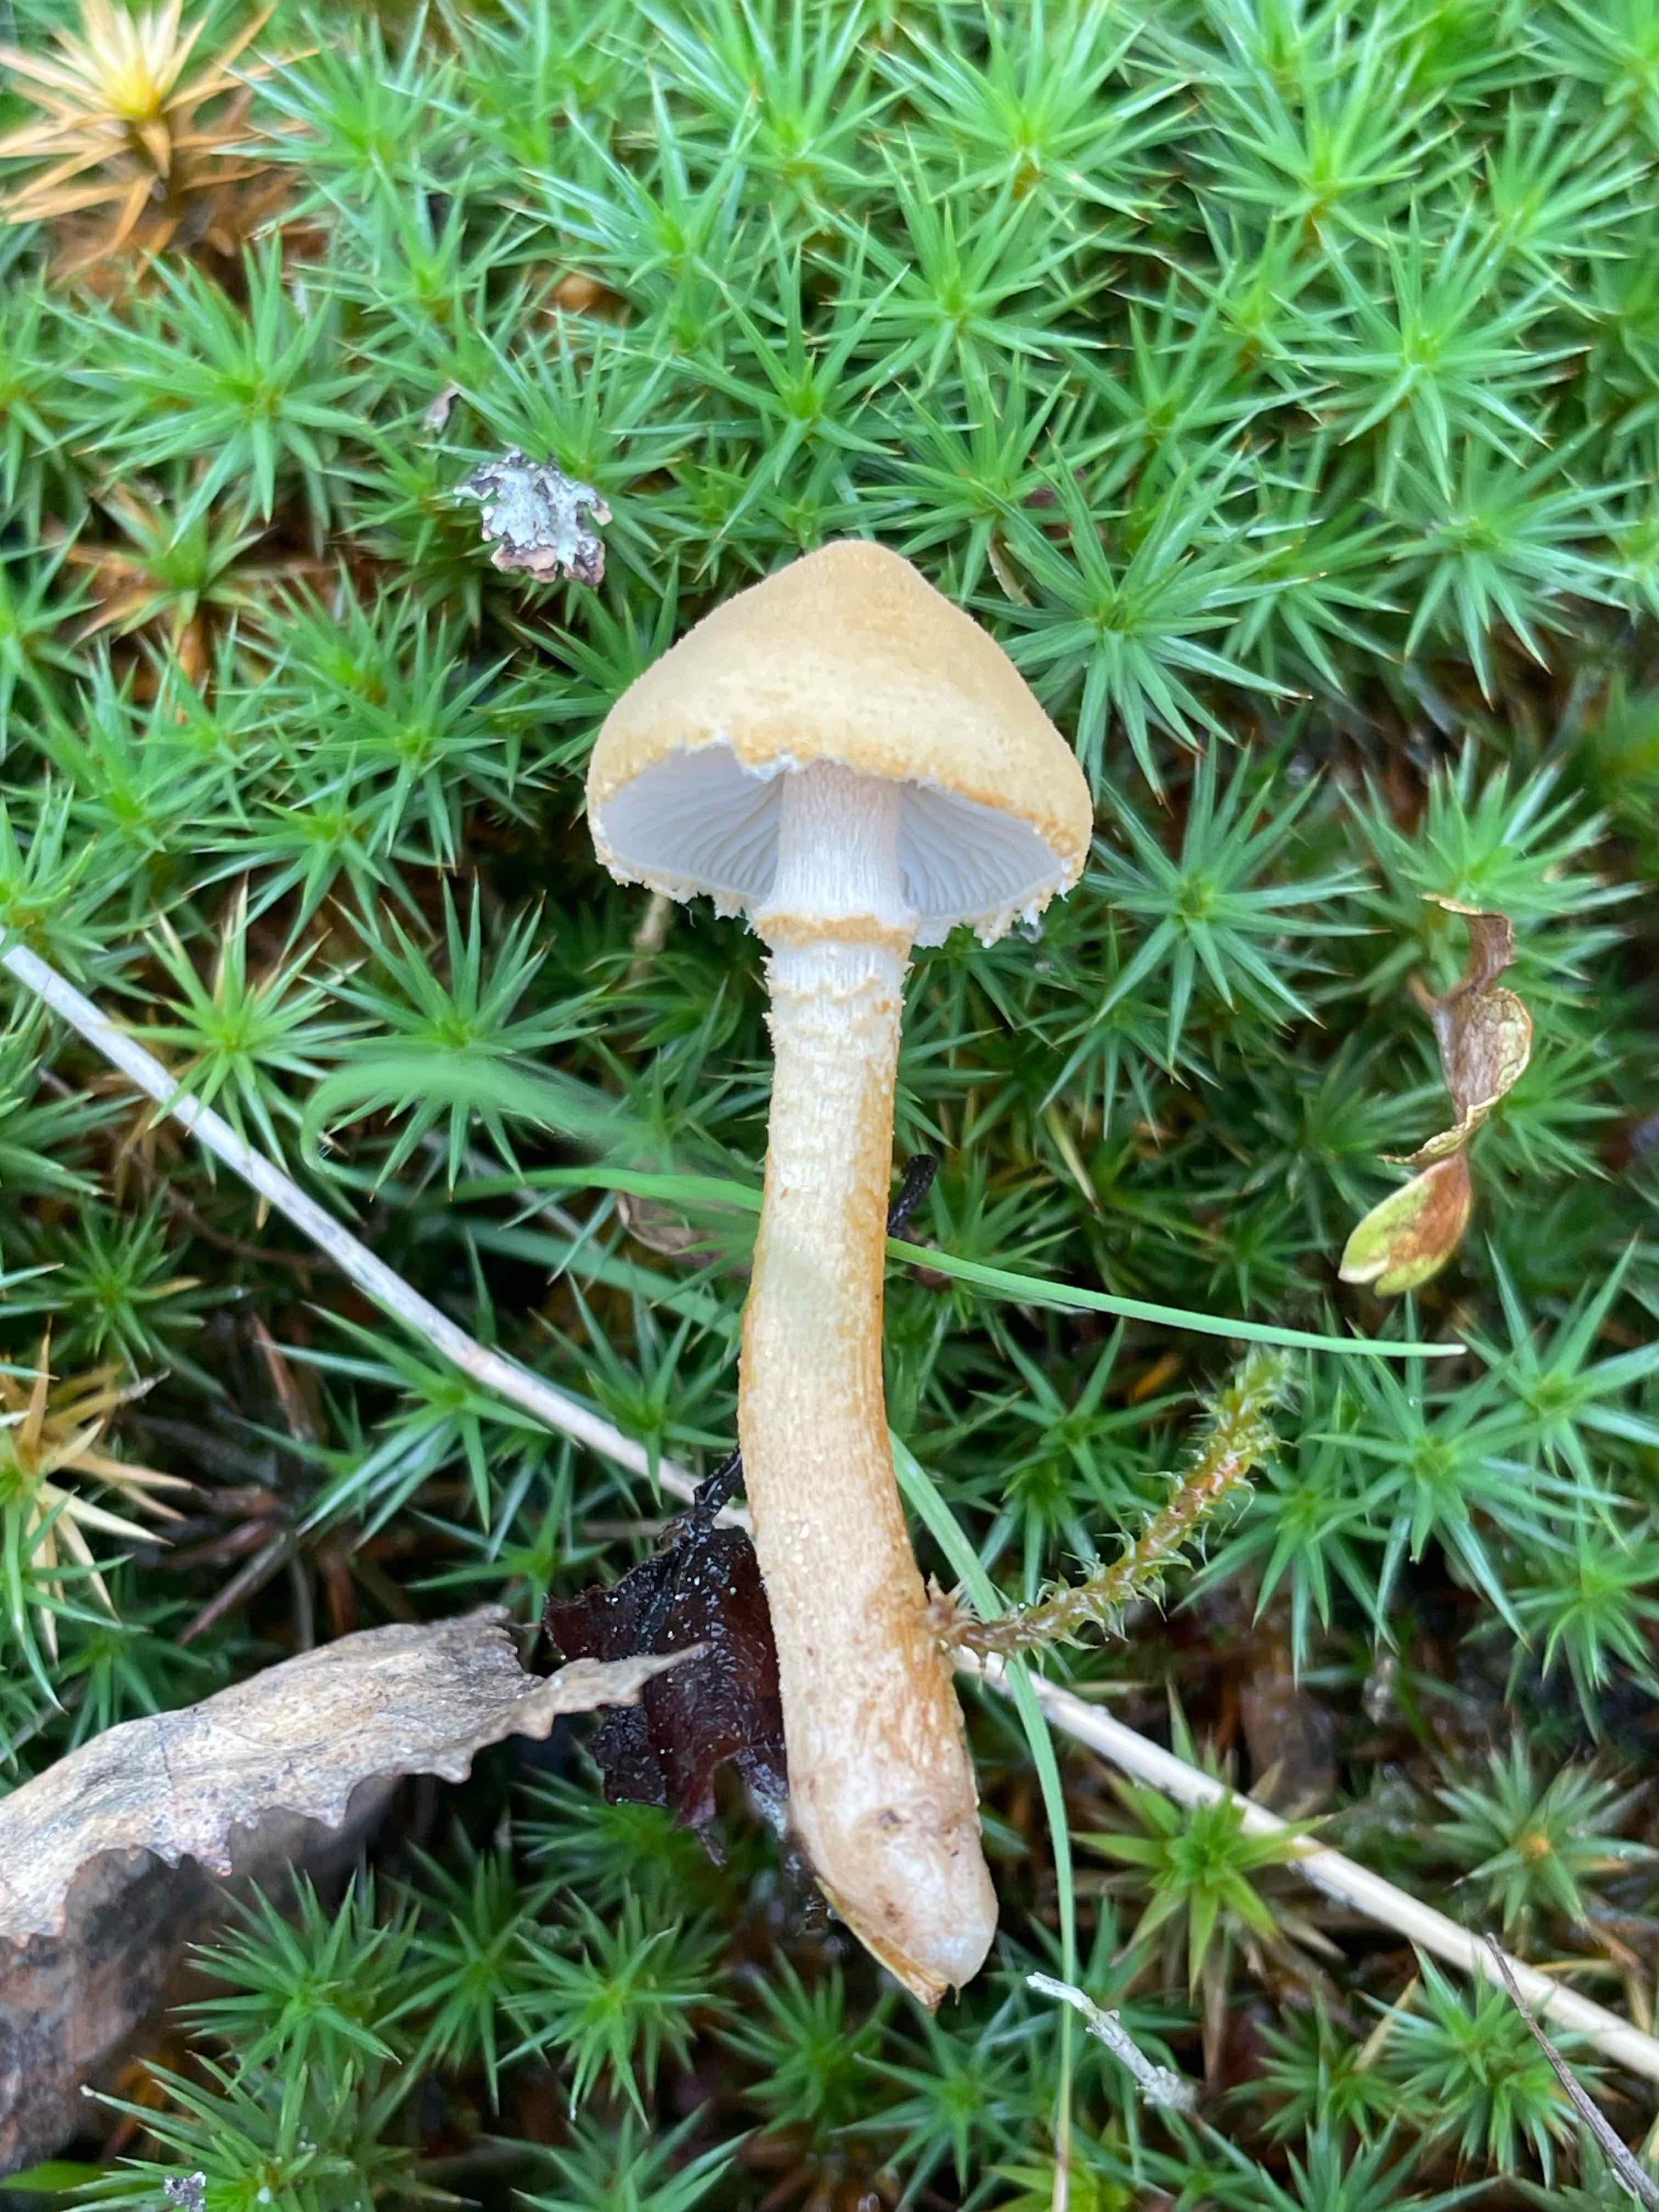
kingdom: Fungi
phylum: Basidiomycota
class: Agaricomycetes
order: Agaricales
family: Tricholomataceae
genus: Cystoderma
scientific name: Cystoderma amianthinum
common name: okkergul grynhat
